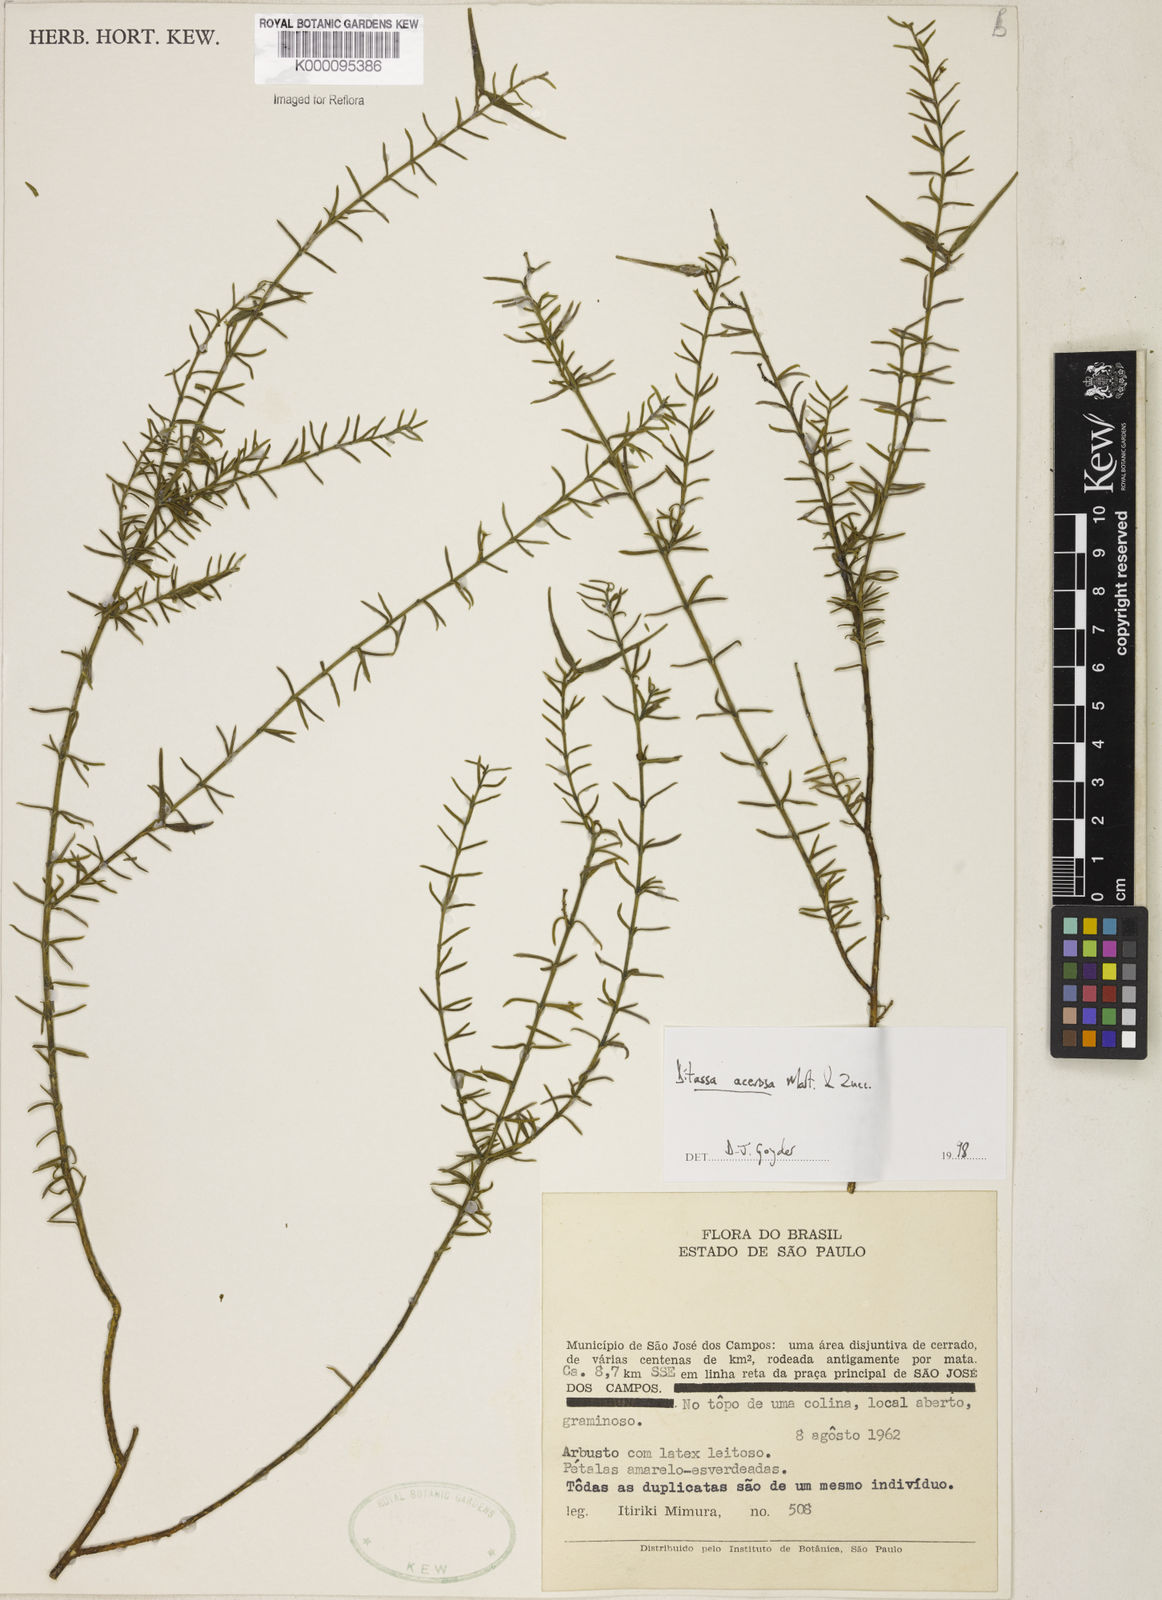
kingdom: Plantae
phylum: Tracheophyta
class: Magnoliopsida
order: Gentianales
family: Apocynaceae
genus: Minaria
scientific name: Minaria acerosa
